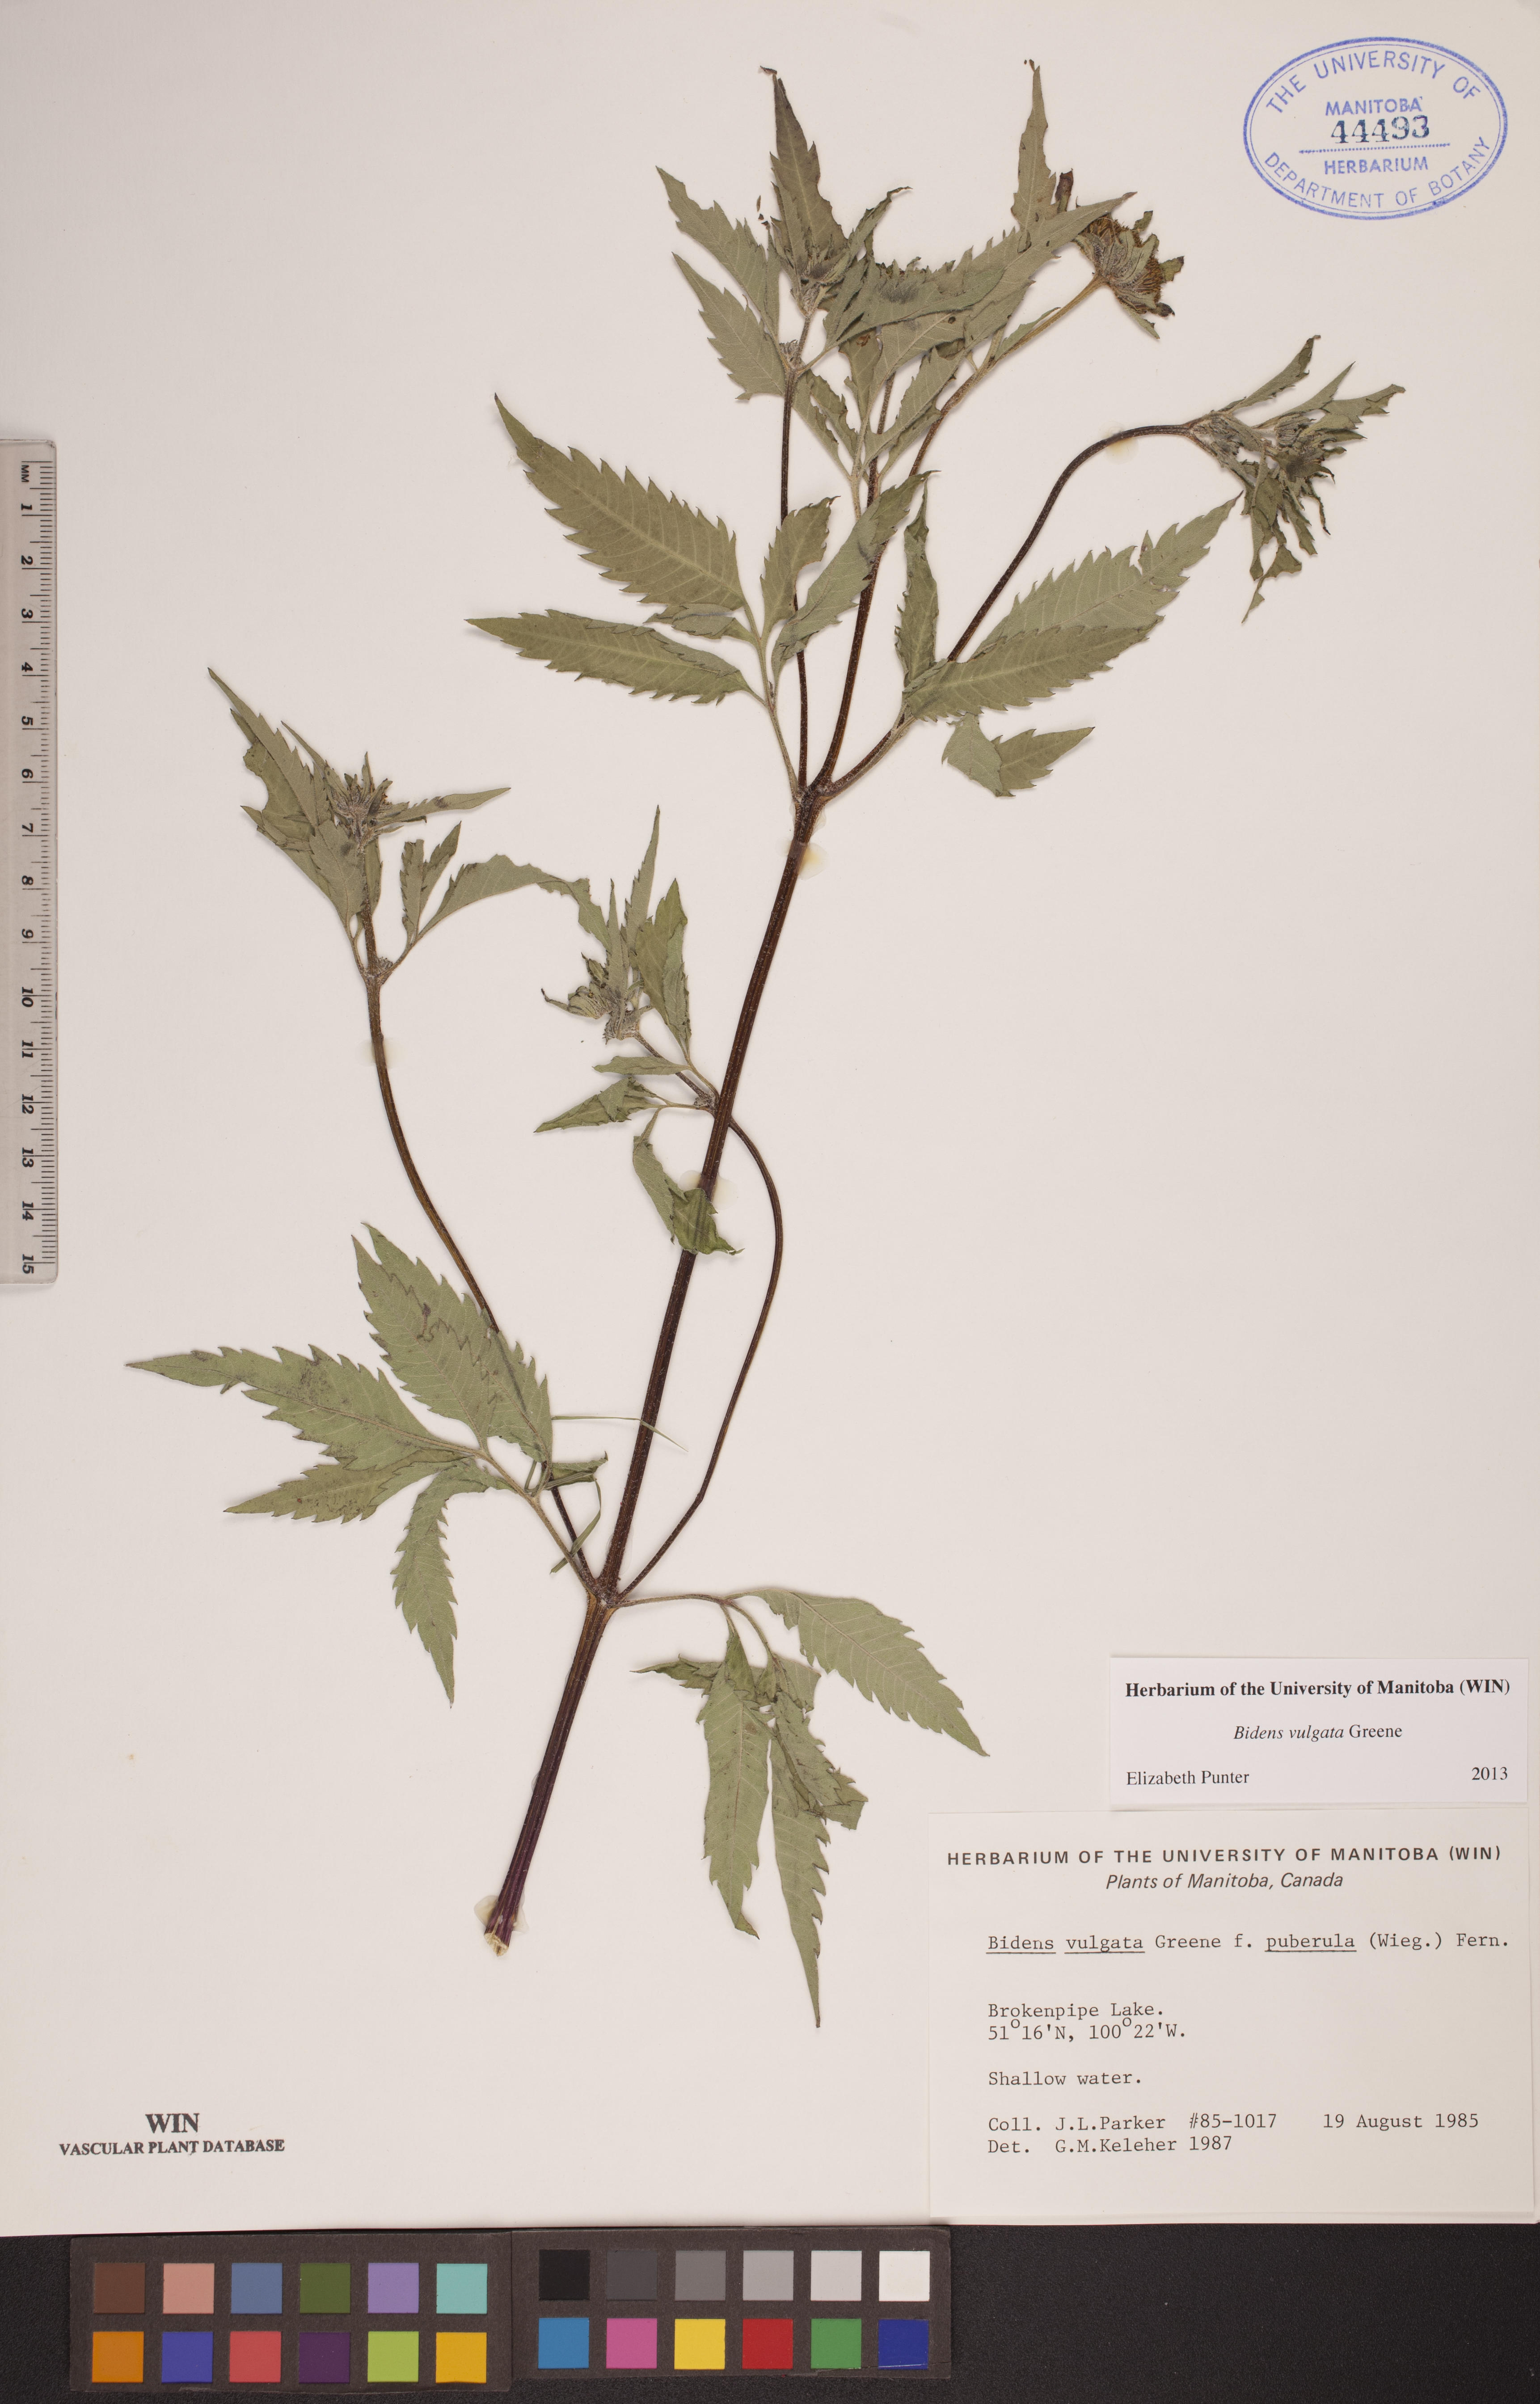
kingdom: Plantae
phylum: Tracheophyta
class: Magnoliopsida
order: Asterales
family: Asteraceae
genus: Bidens
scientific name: Bidens vulgata
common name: Tall beggarticks
